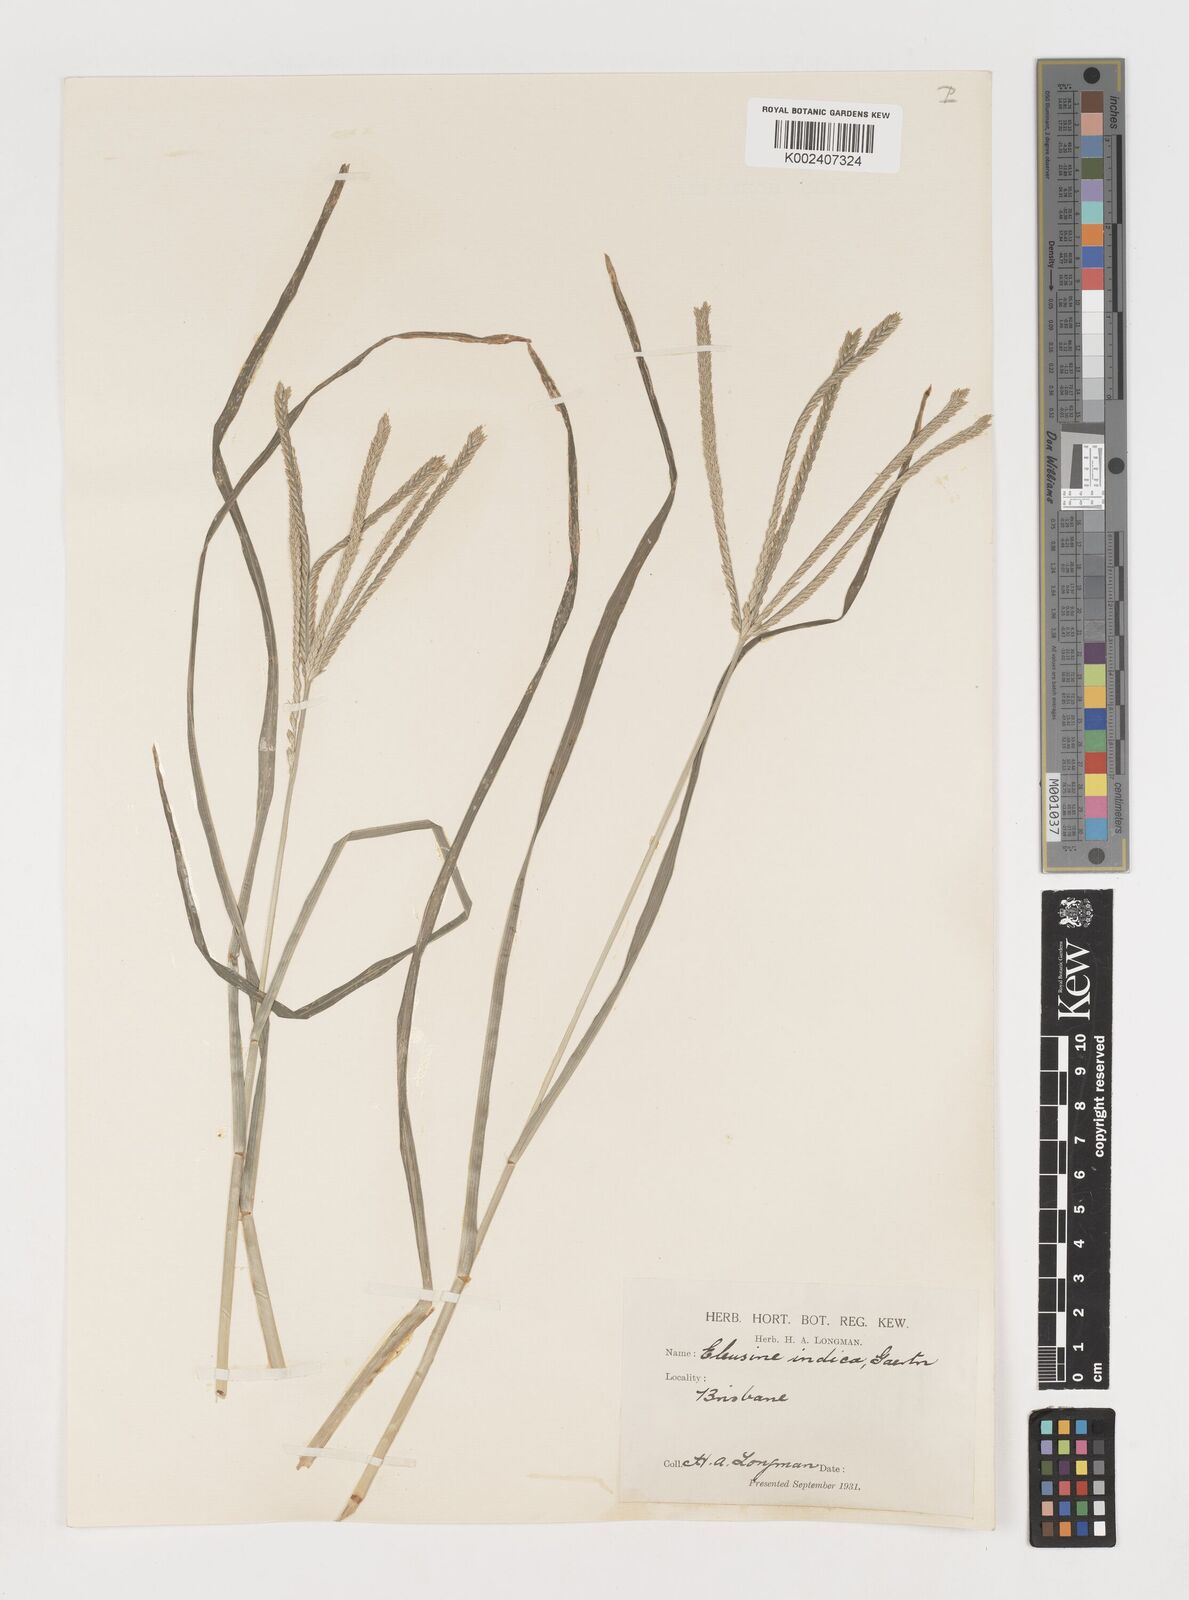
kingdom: Plantae
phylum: Tracheophyta
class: Liliopsida
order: Poales
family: Poaceae
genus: Eleusine
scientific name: Eleusine indica
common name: Yard-grass
